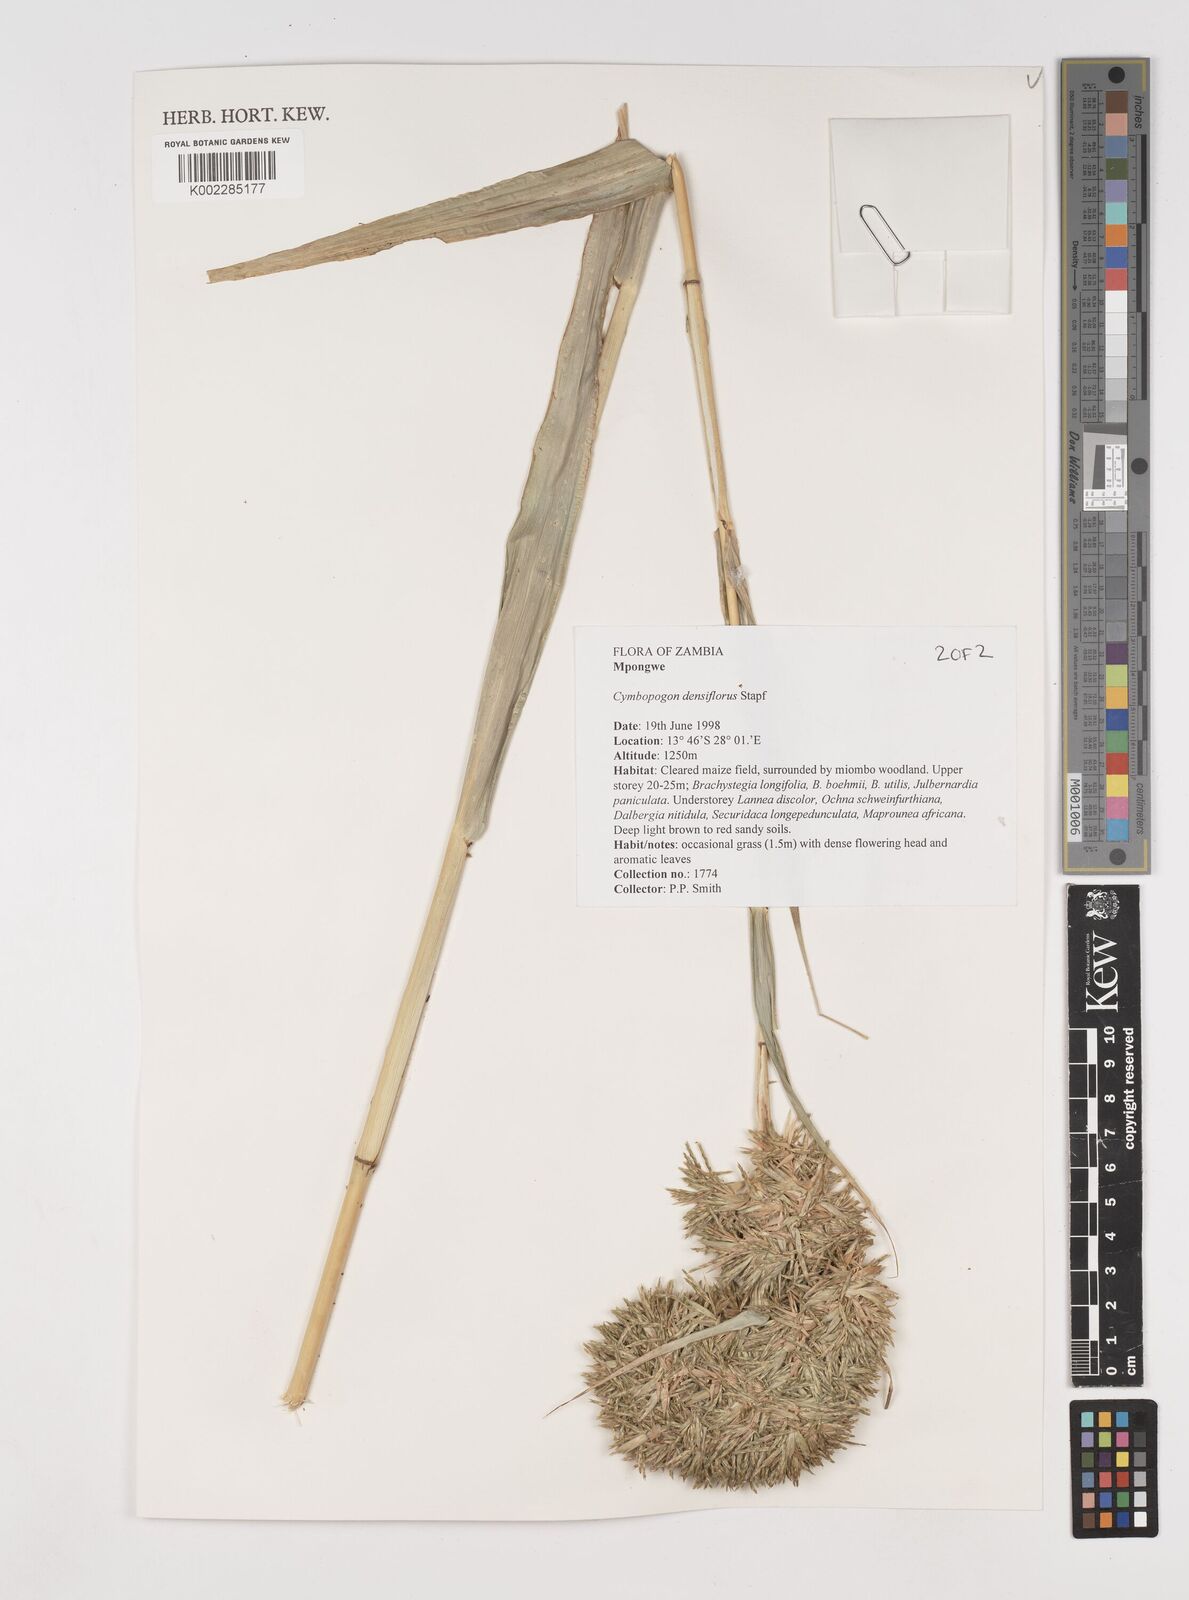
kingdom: Plantae
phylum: Tracheophyta
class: Liliopsida
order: Poales
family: Poaceae
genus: Cymbopogon
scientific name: Cymbopogon densiflorus
